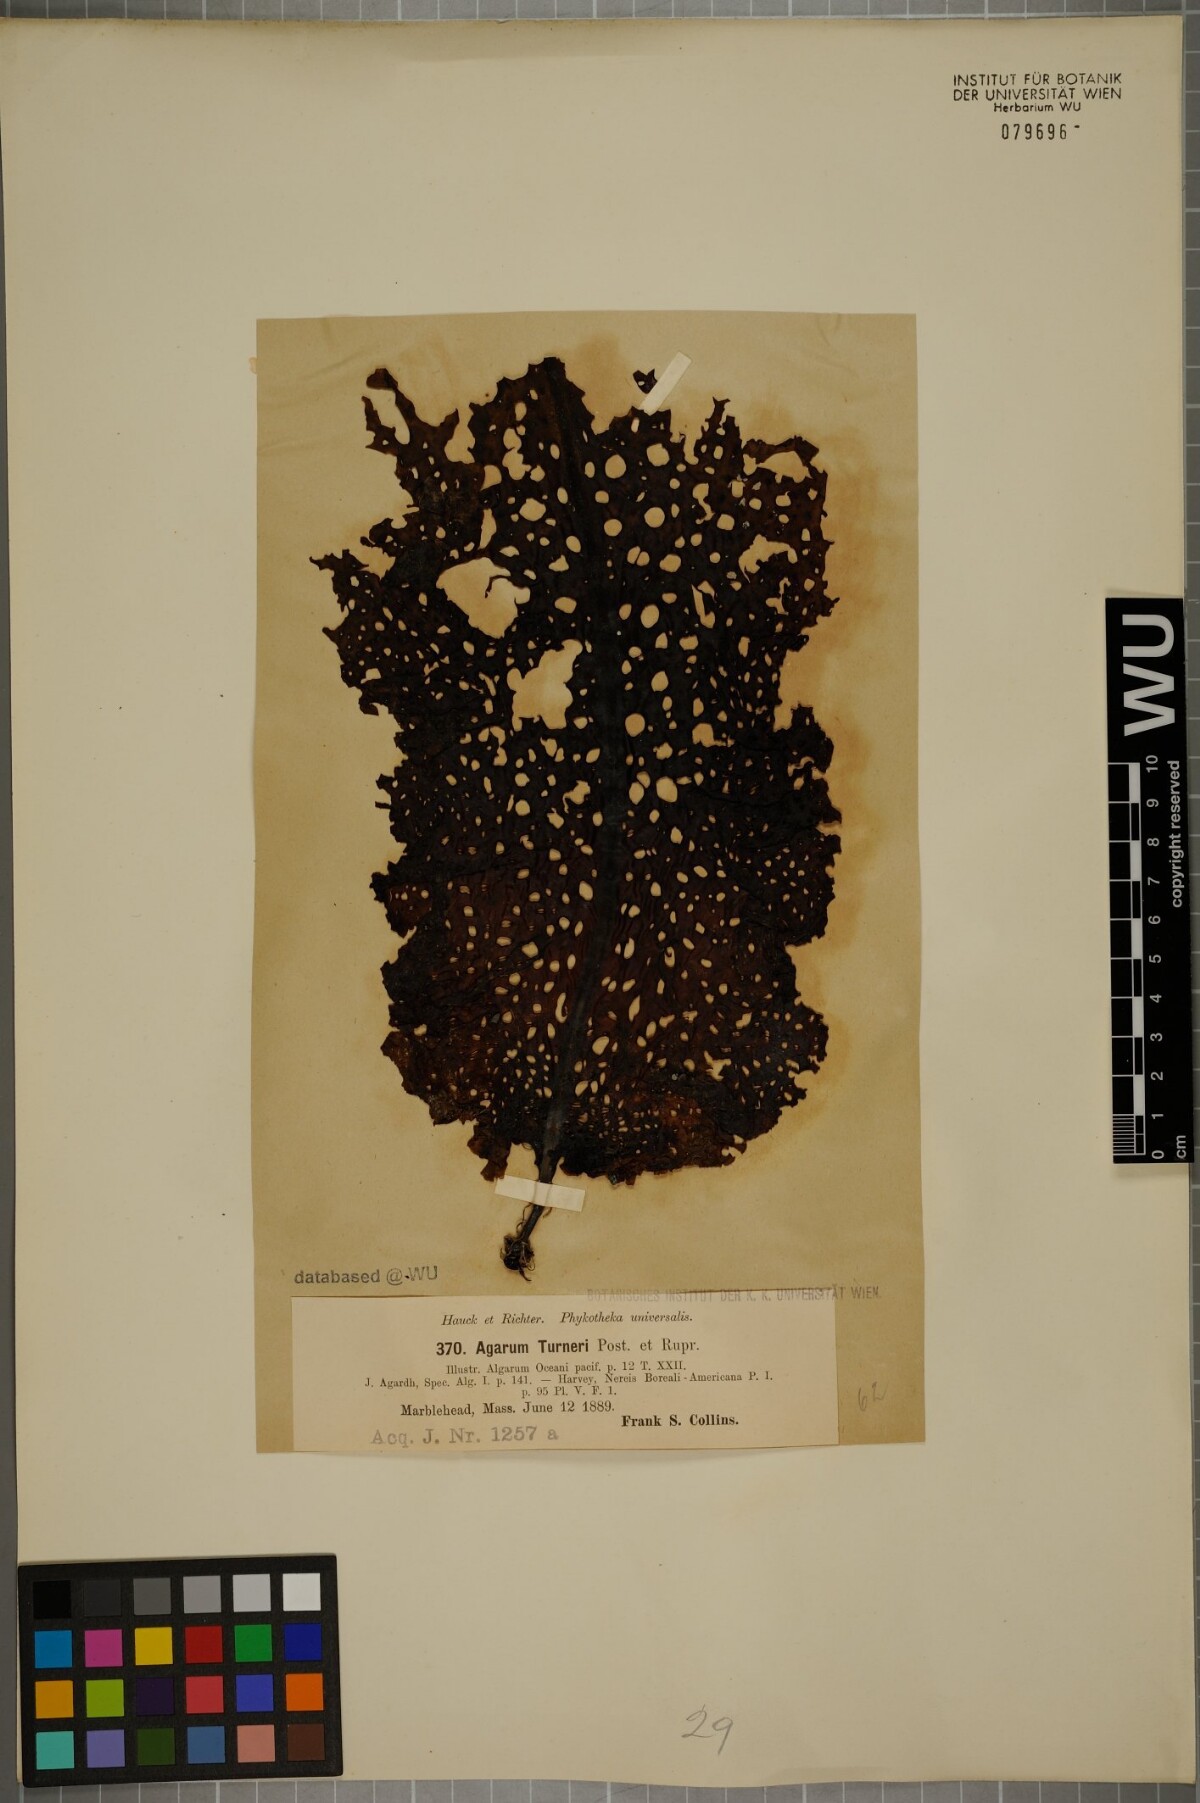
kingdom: Chromista
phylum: Ochrophyta
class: Phaeophyceae
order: Laminariales
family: Costariaceae
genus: Agarum
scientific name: Agarum turneri
